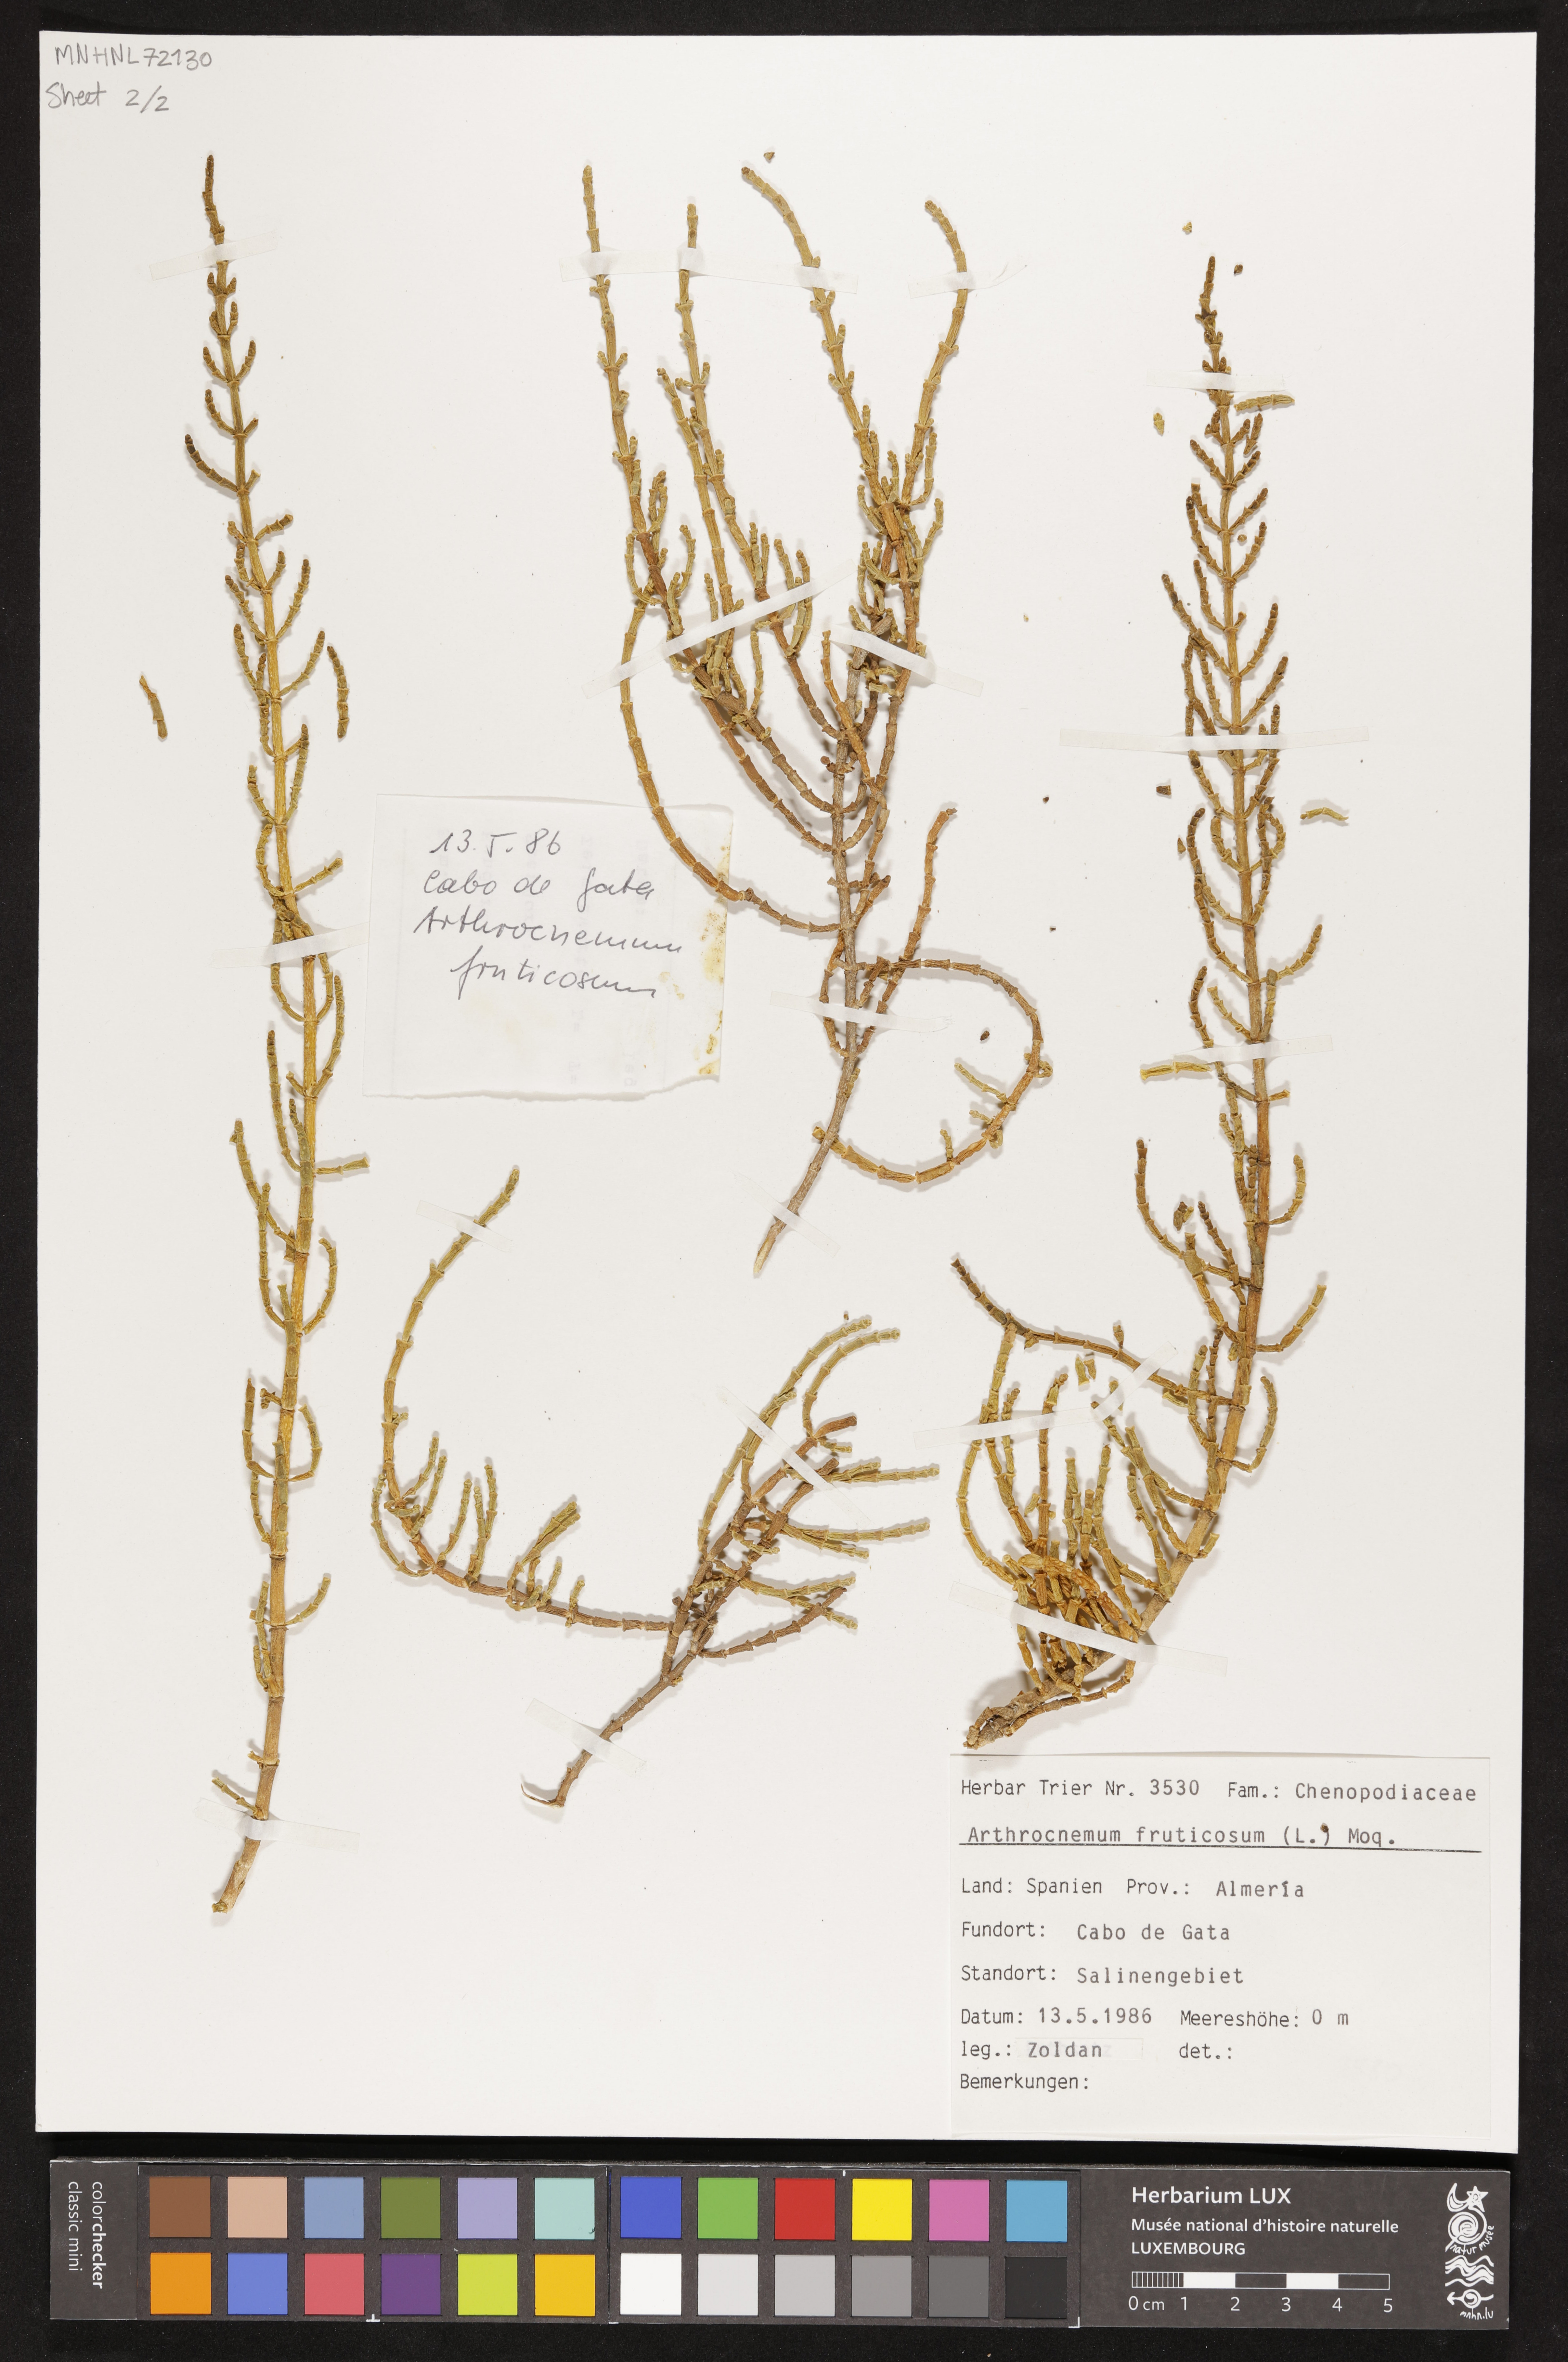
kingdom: Plantae
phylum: Tracheophyta
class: Magnoliopsida
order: Caryophyllales
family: Amaranthaceae
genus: Salicornia
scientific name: Salicornia fruticosa
